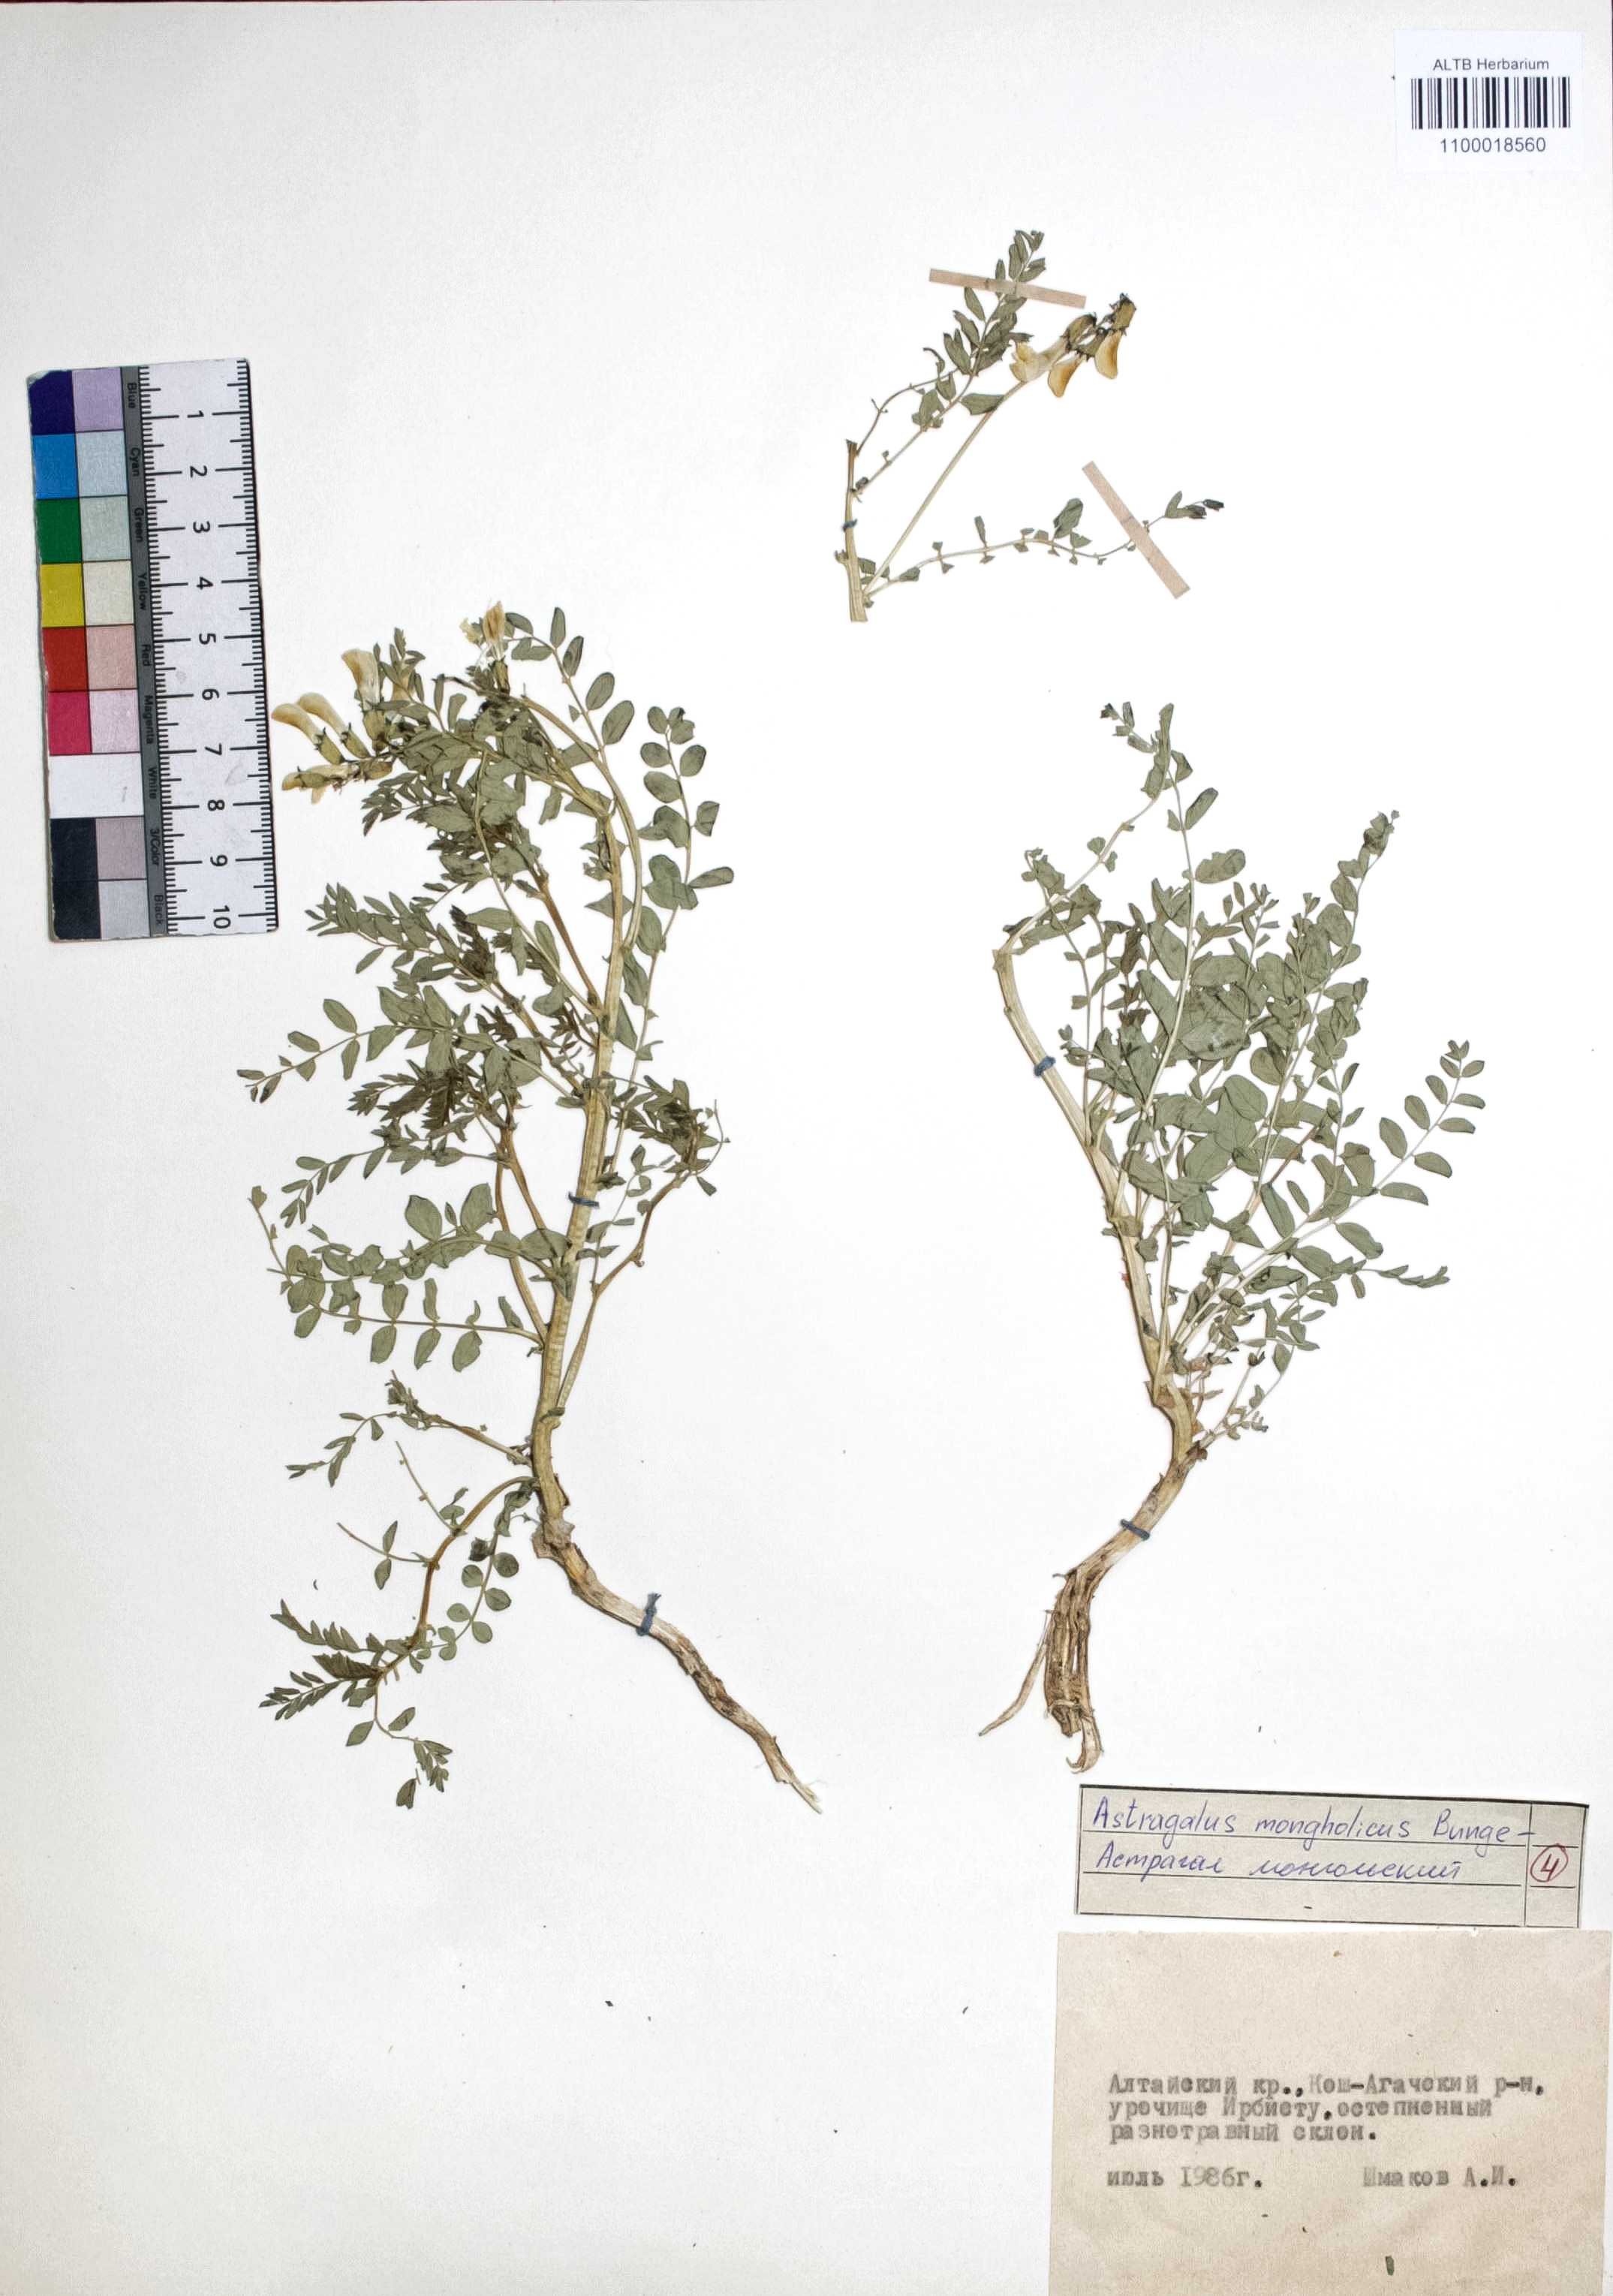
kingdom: Plantae
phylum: Tracheophyta
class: Magnoliopsida
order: Fabales
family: Fabaceae
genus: Astragalus
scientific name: Astragalus mongolicus
